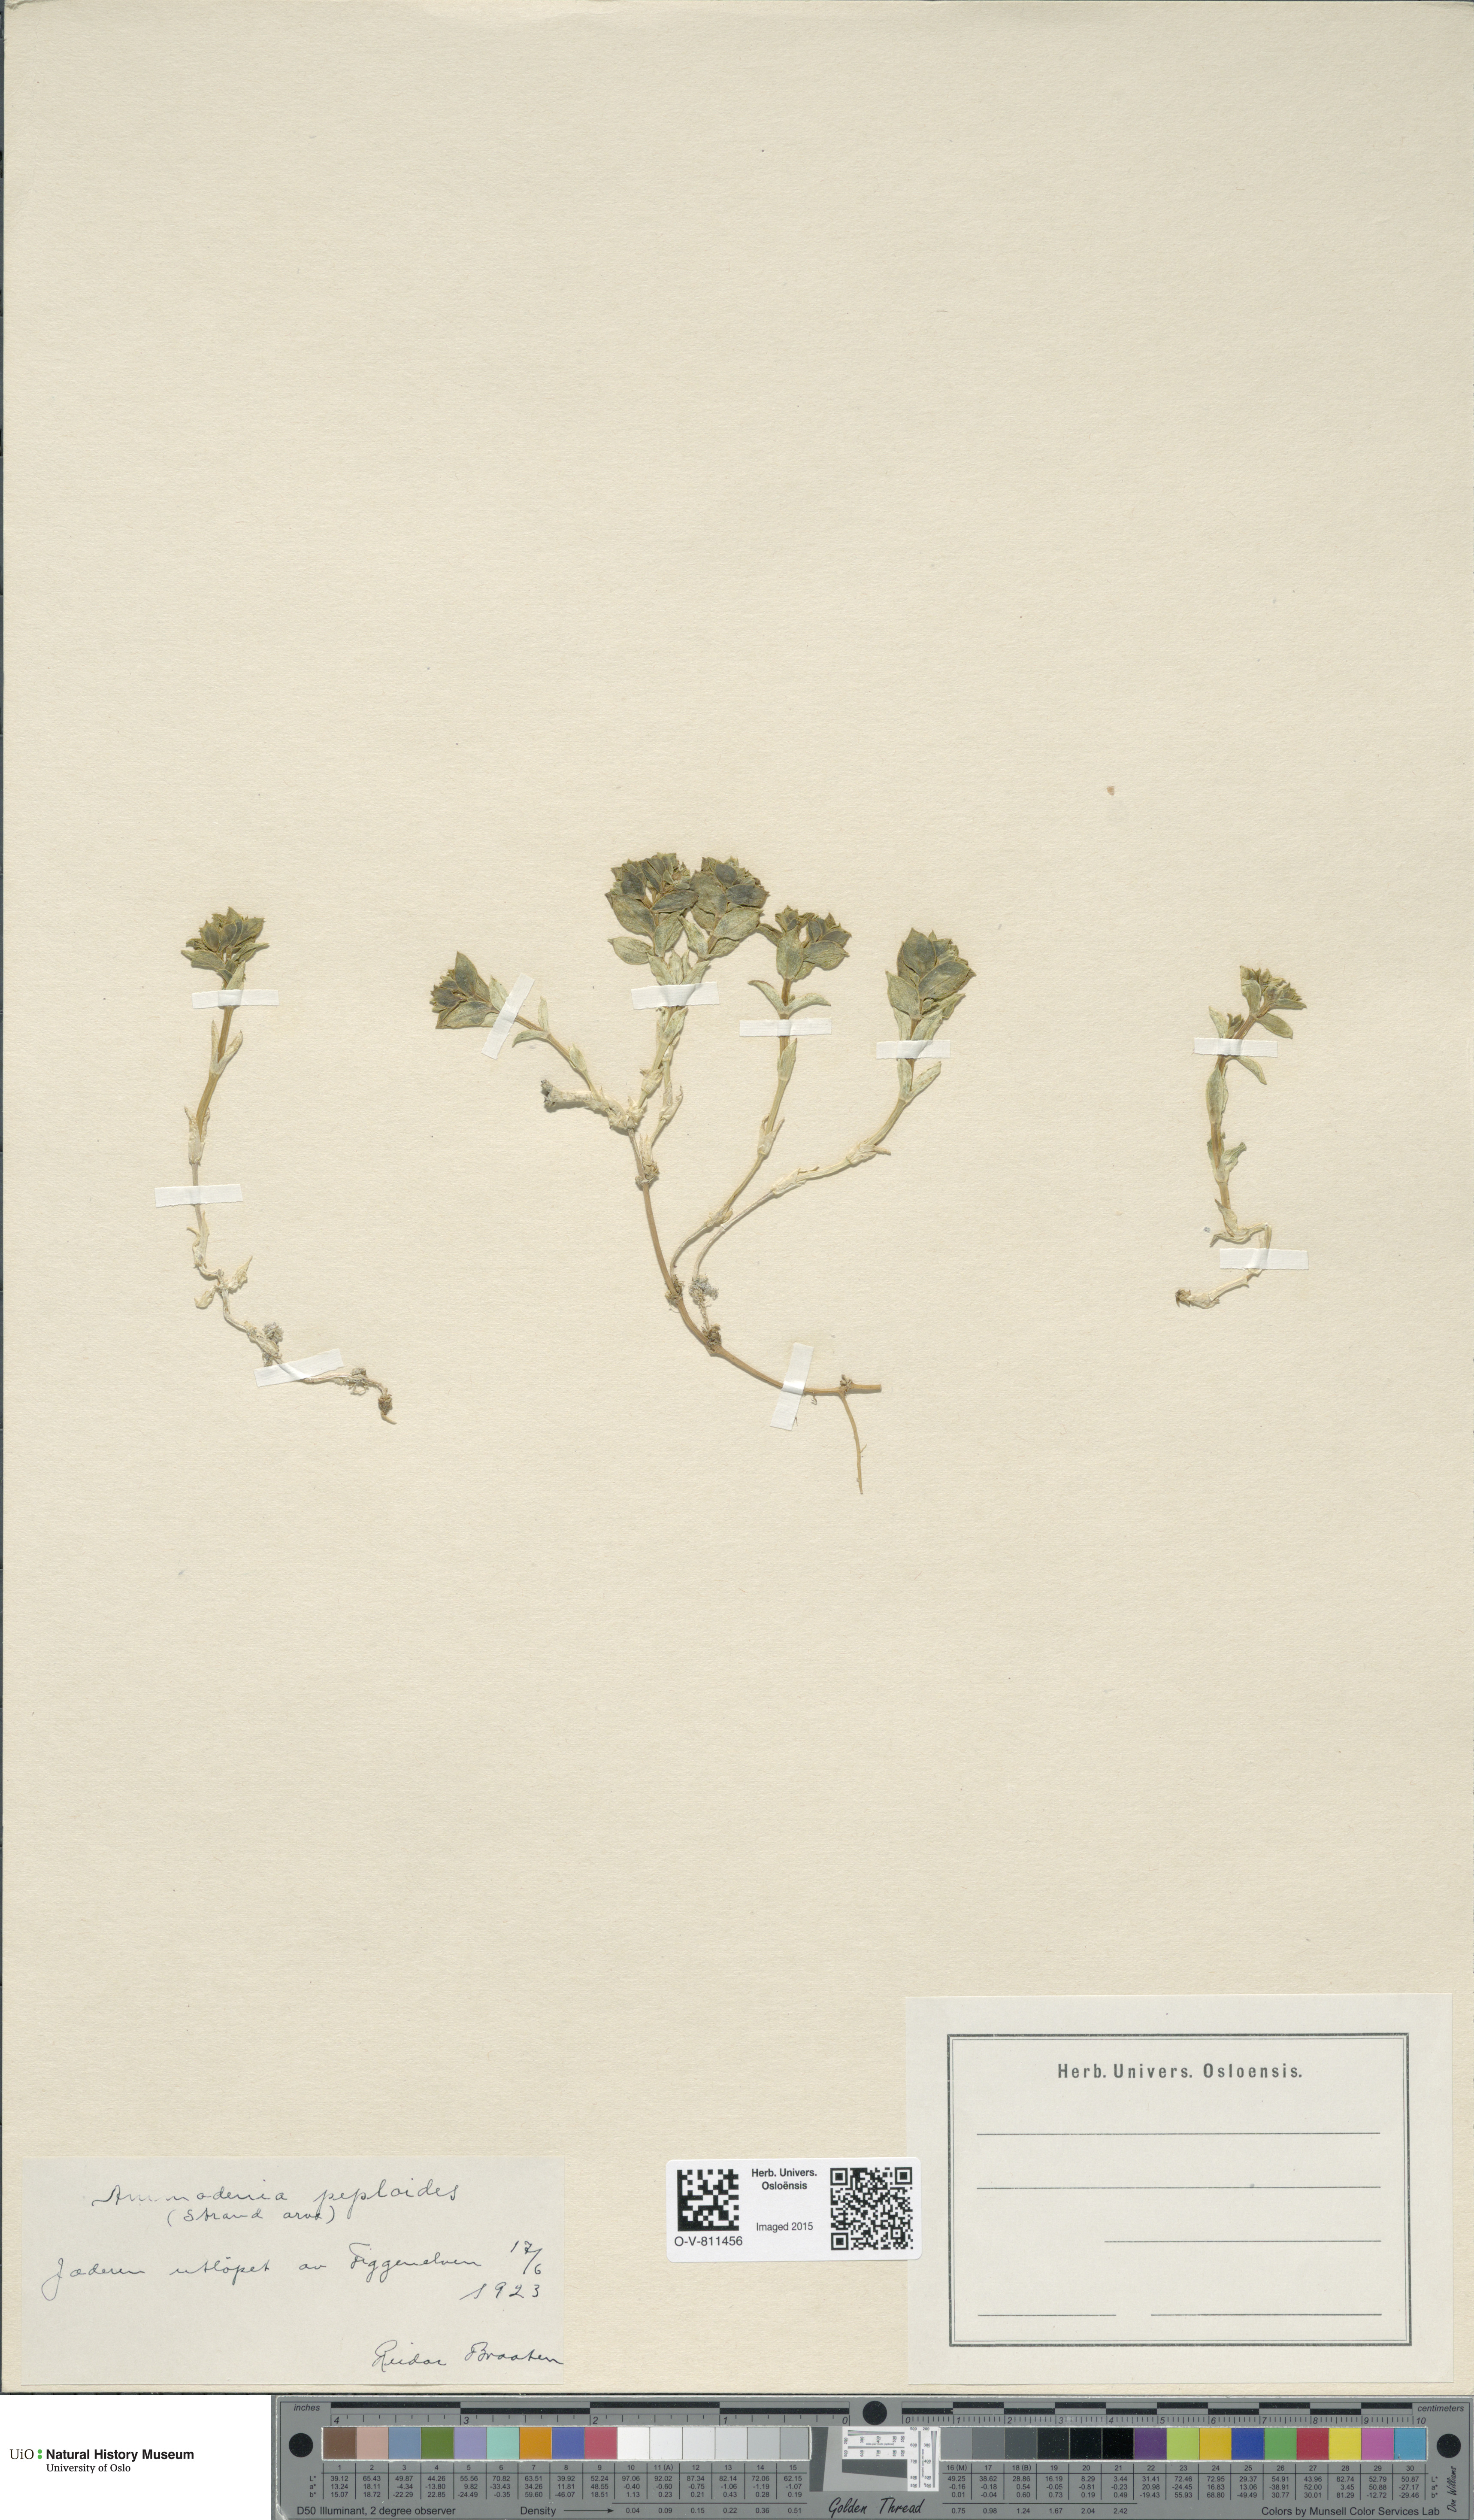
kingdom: Plantae
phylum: Tracheophyta
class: Magnoliopsida
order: Caryophyllales
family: Caryophyllaceae
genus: Honckenya
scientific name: Honckenya peploides
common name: Sea sandwort
